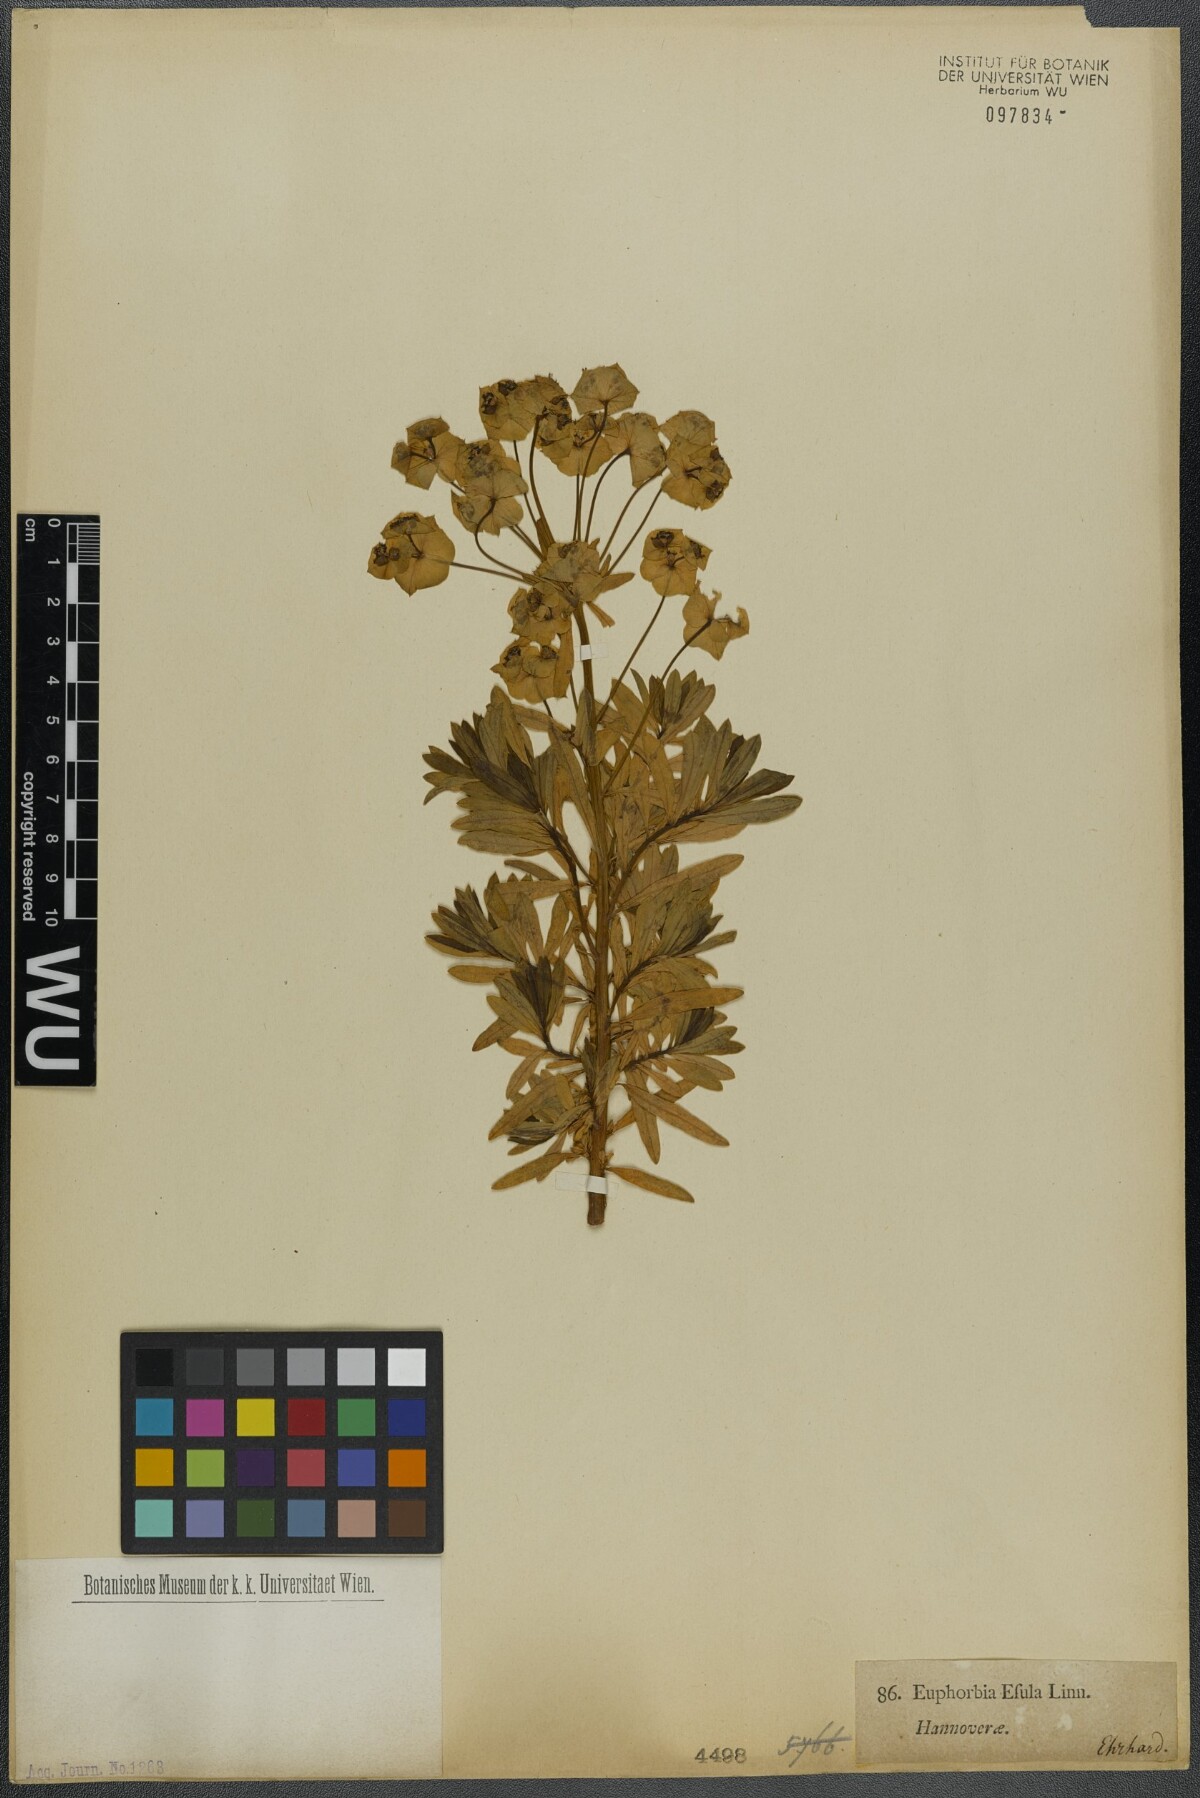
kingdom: Plantae
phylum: Tracheophyta
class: Magnoliopsida
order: Malpighiales
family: Euphorbiaceae
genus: Euphorbia
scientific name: Euphorbia esula
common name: Leafy spurge
